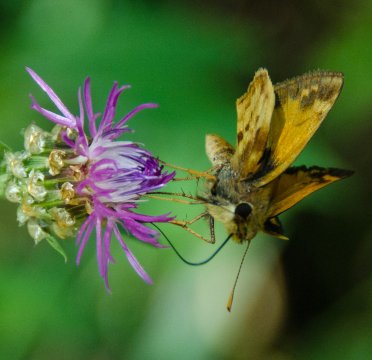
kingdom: Animalia
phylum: Arthropoda
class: Insecta
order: Lepidoptera
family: Hesperiidae
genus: Hylephila
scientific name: Hylephila phyleus
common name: Fiery Skipper
